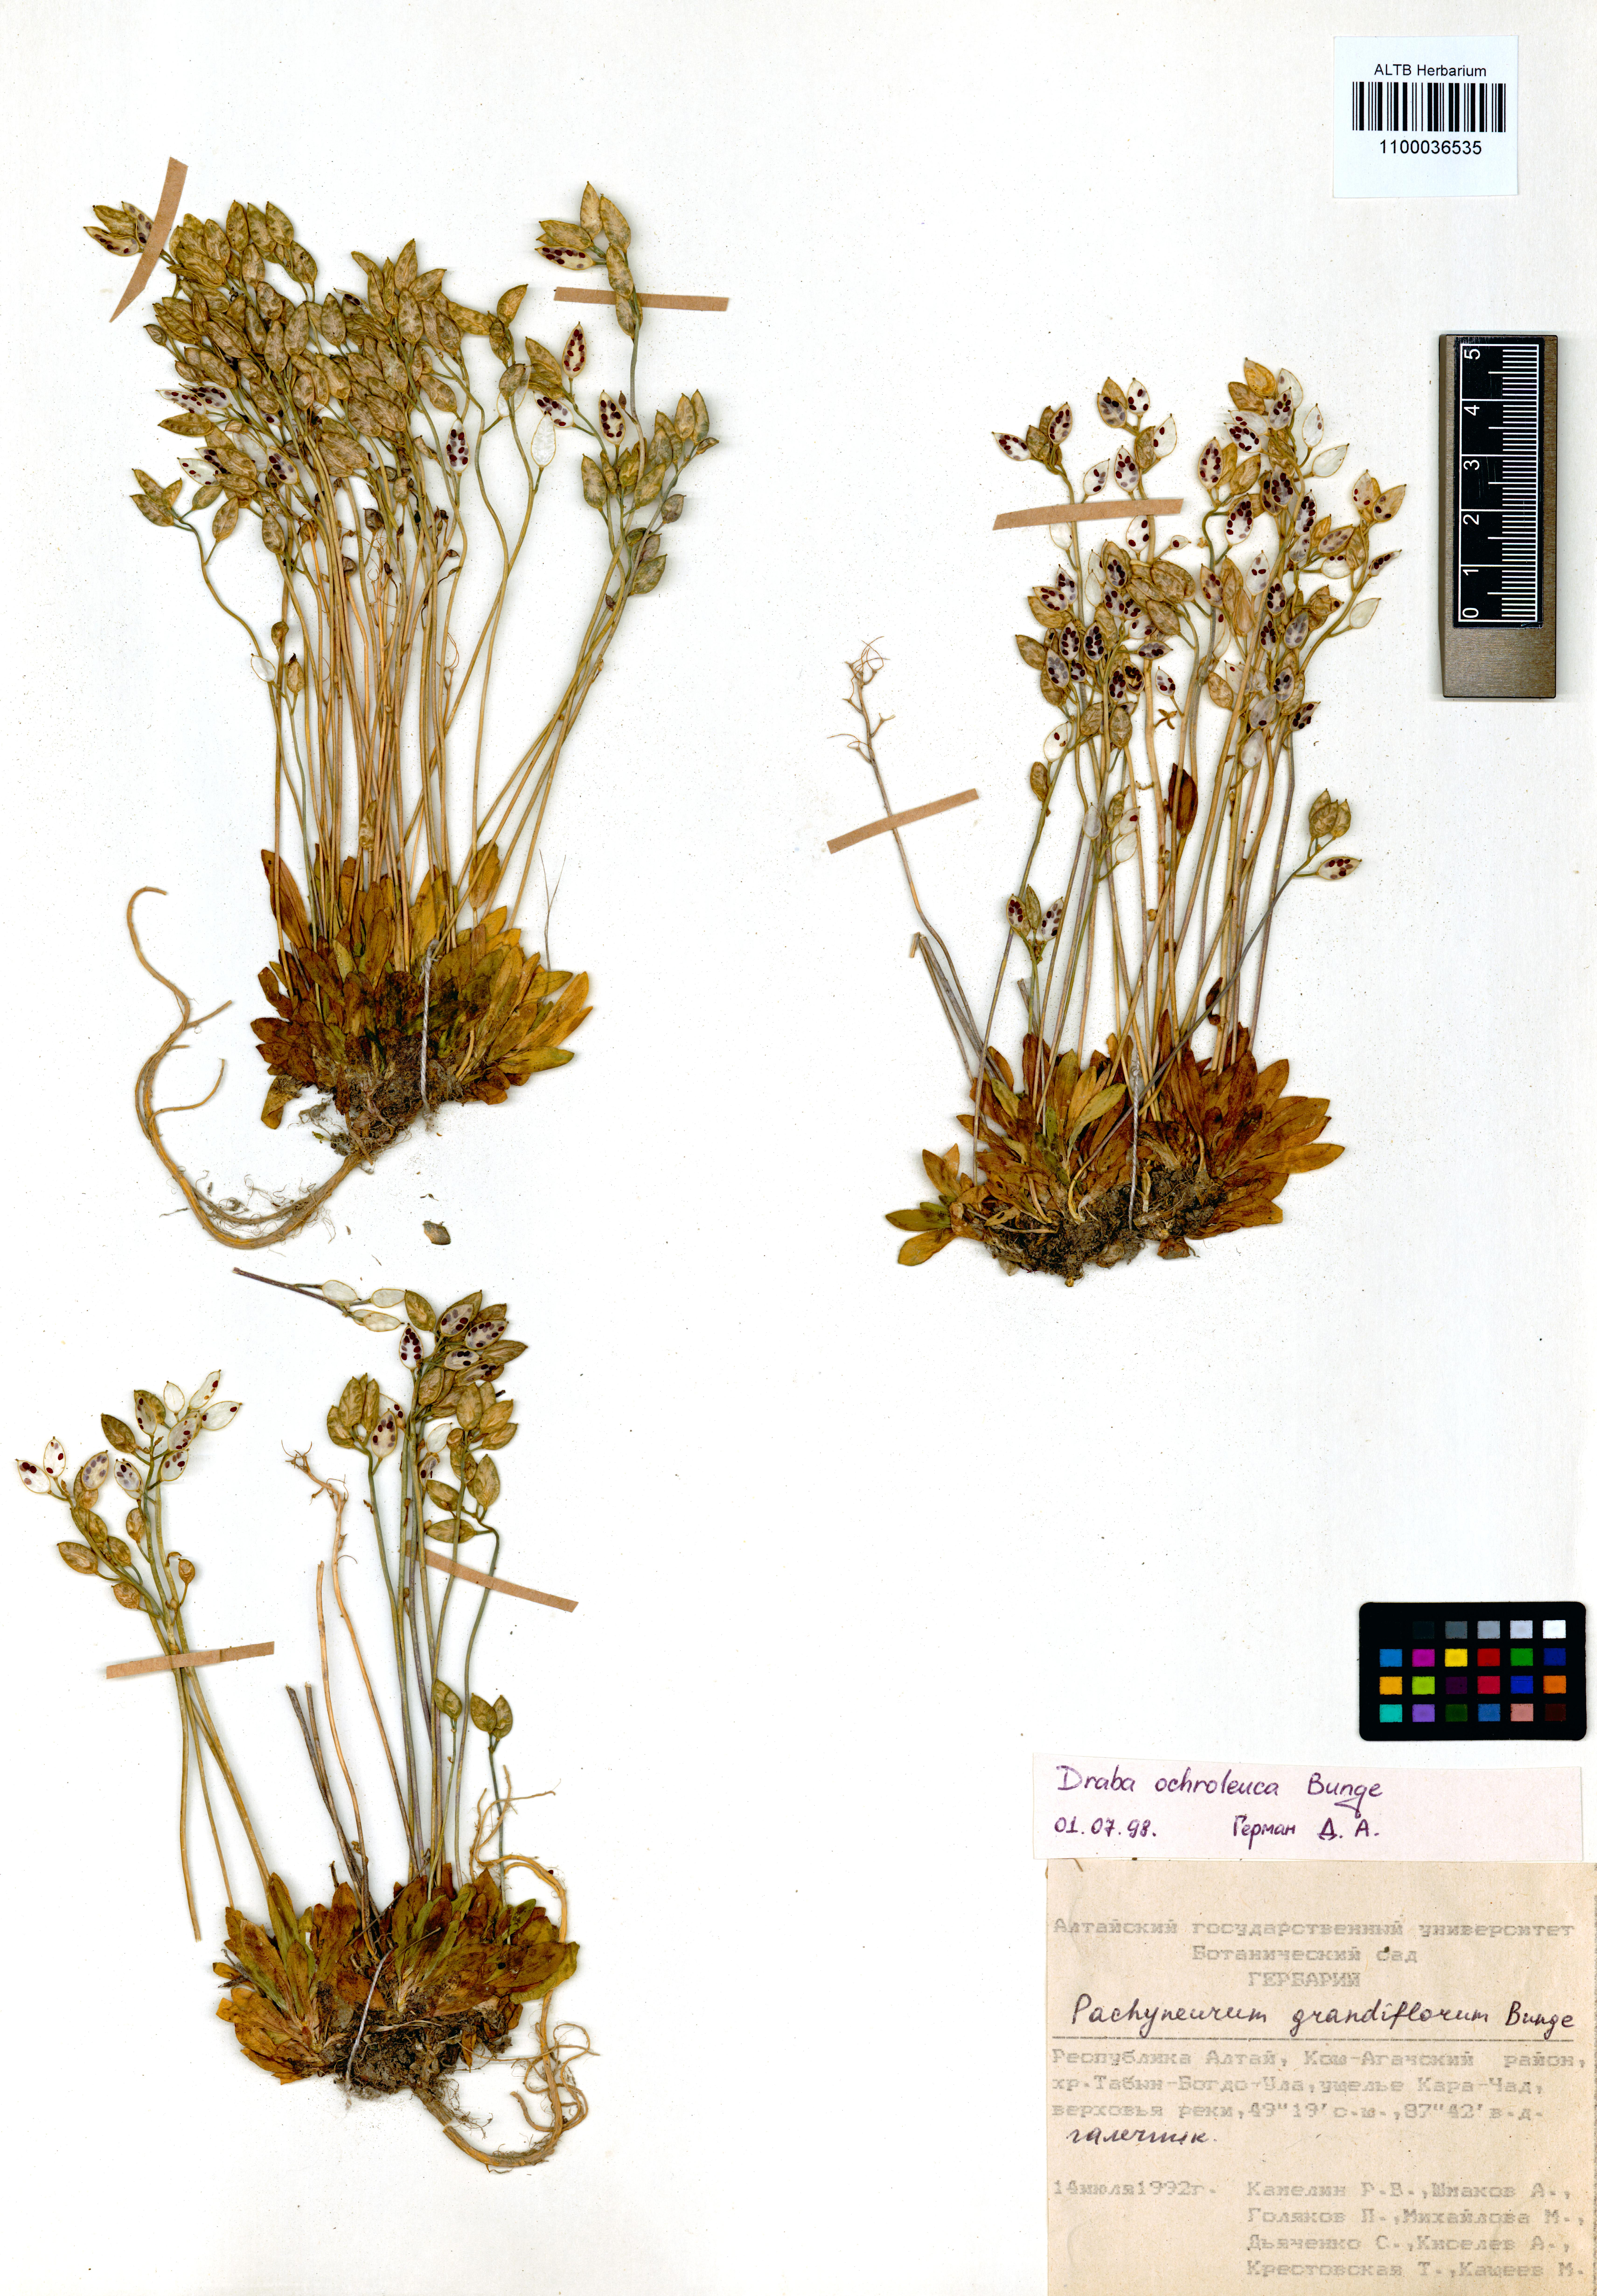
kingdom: Plantae
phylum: Tracheophyta
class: Magnoliopsida
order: Brassicales
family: Brassicaceae
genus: Draba
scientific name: Draba ochroleuca
